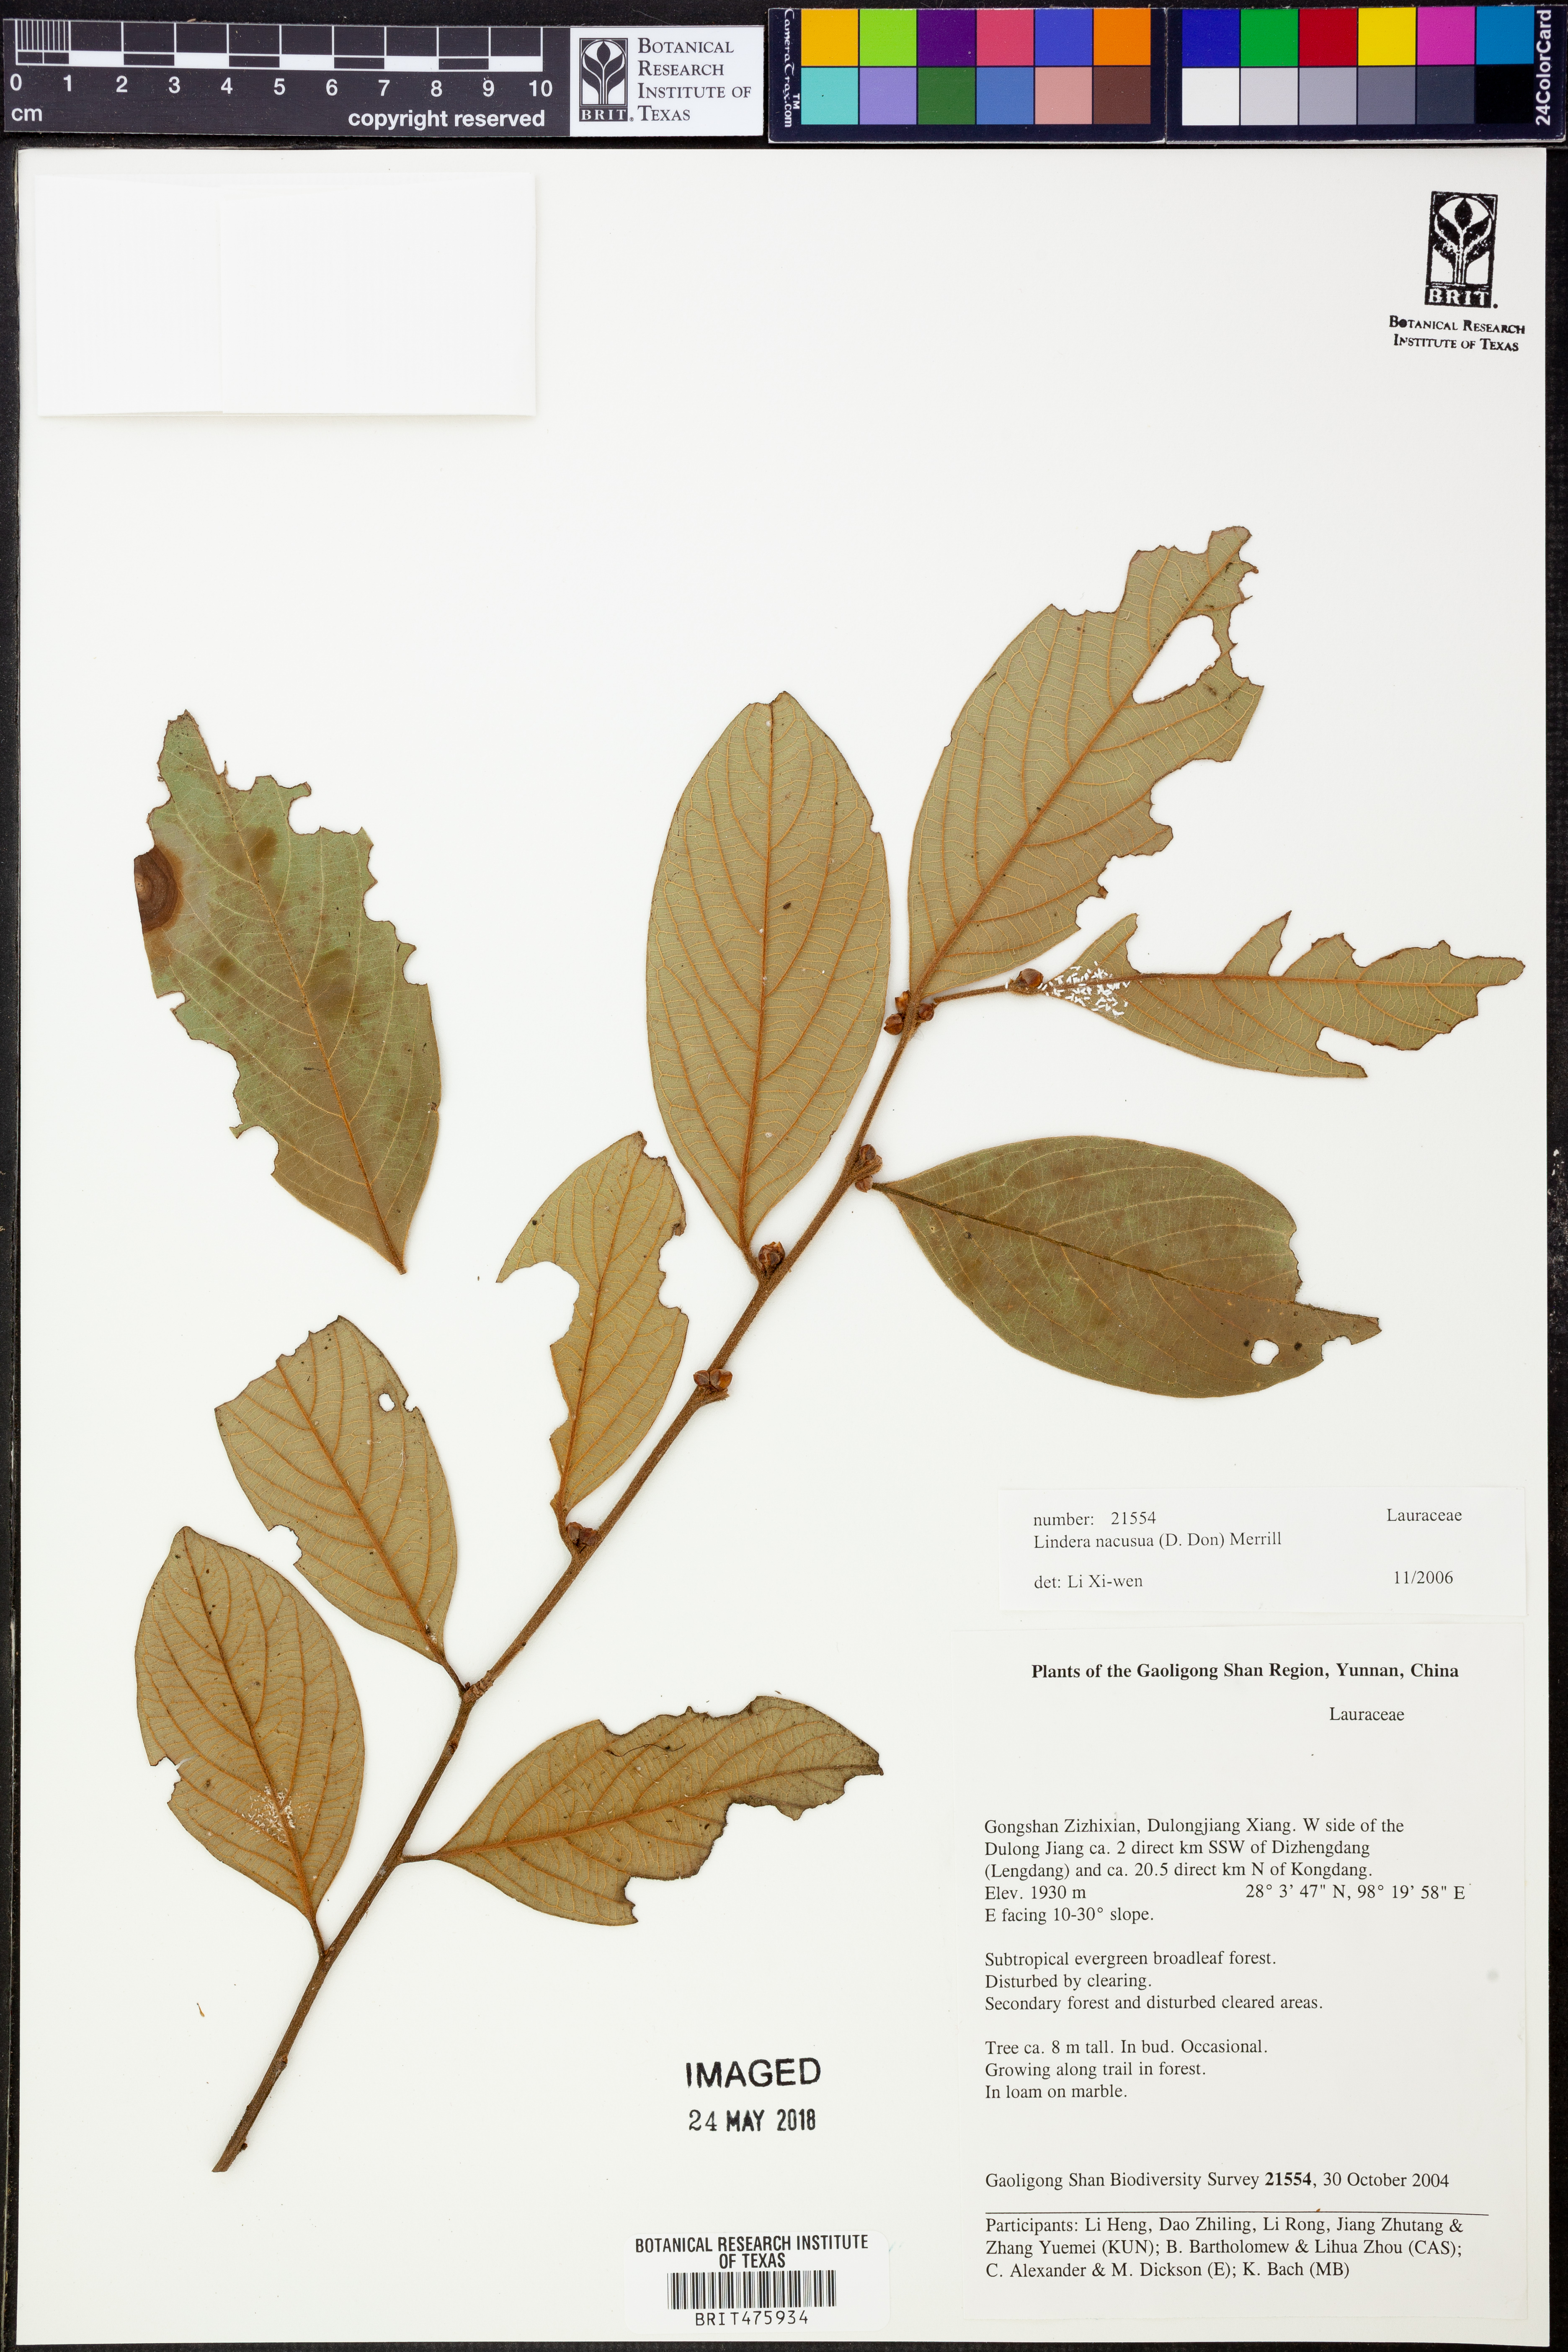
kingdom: Plantae
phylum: Tracheophyta
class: Magnoliopsida
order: Laurales
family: Lauraceae
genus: Lindera
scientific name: Lindera nacusua
